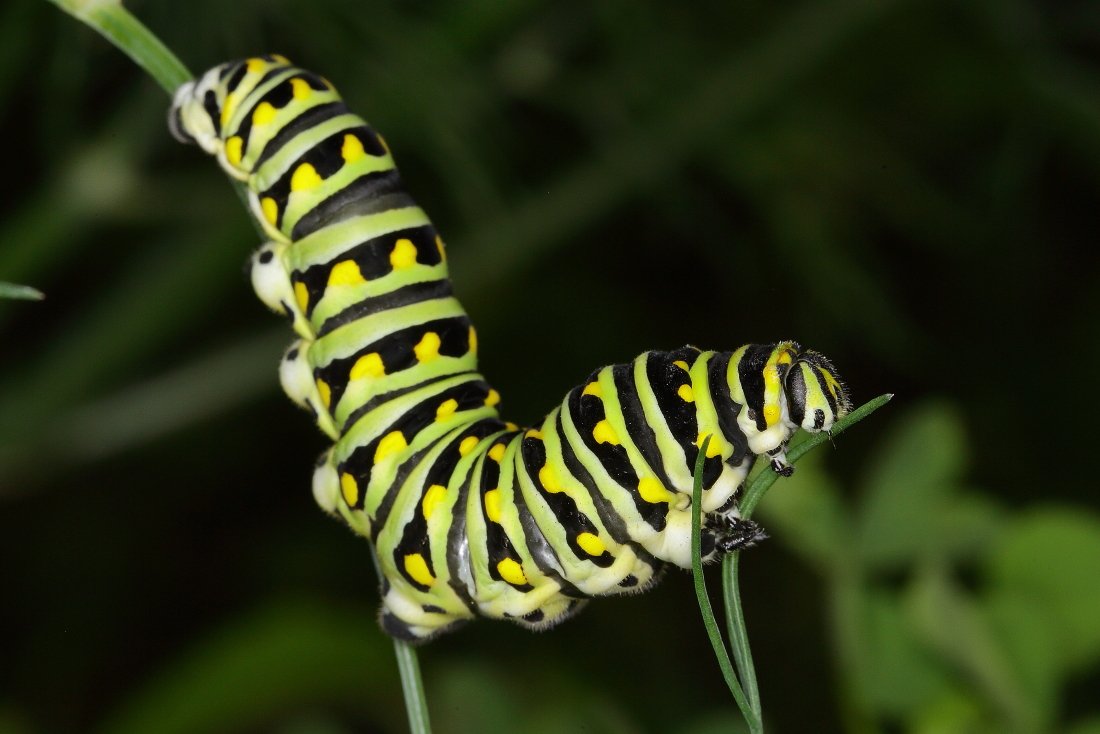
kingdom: Animalia
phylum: Arthropoda
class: Insecta
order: Lepidoptera
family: Papilionidae
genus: Papilio
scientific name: Papilio polyxenes
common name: Black Swallowtail
